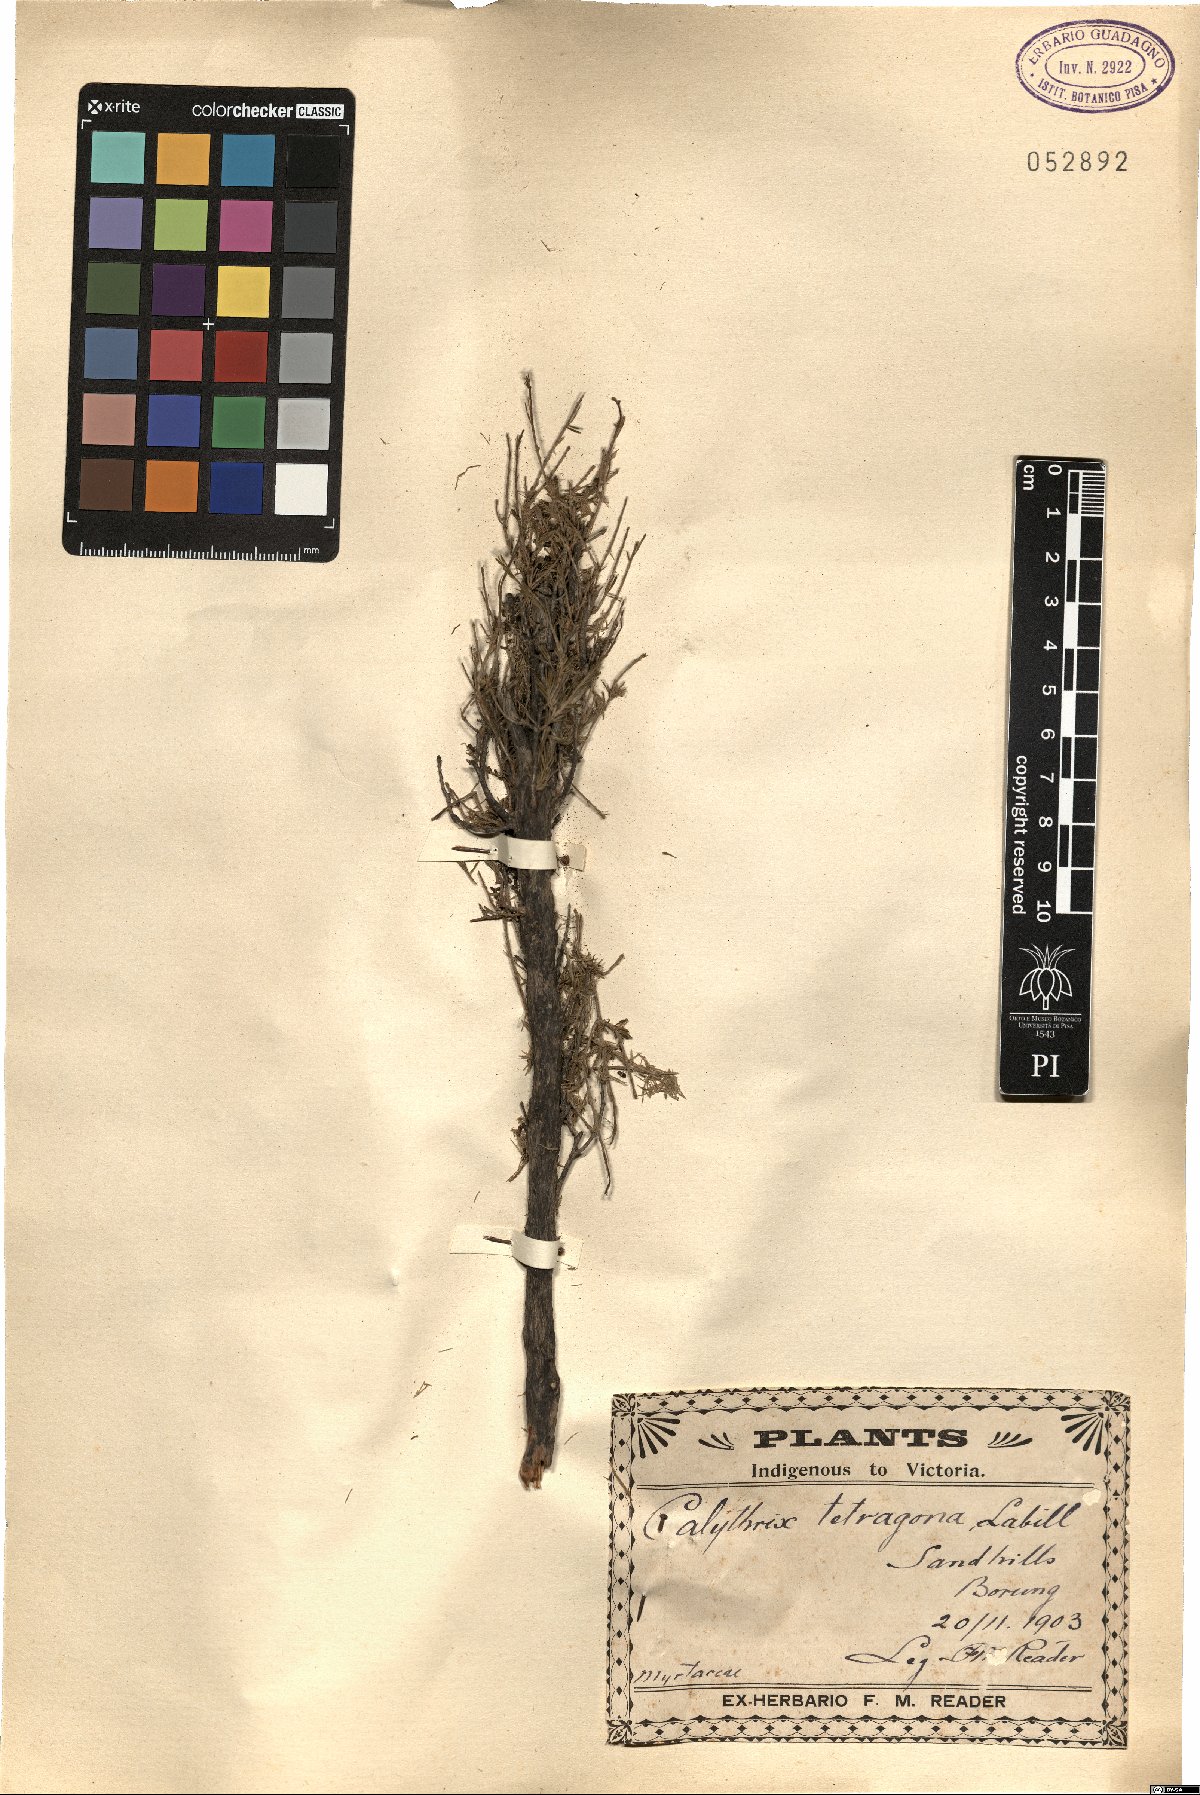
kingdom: Plantae
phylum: Tracheophyta
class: Magnoliopsida
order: Myrtales
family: Myrtaceae
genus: Calytrix
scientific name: Calytrix tetragona
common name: Common fringe myrtle
